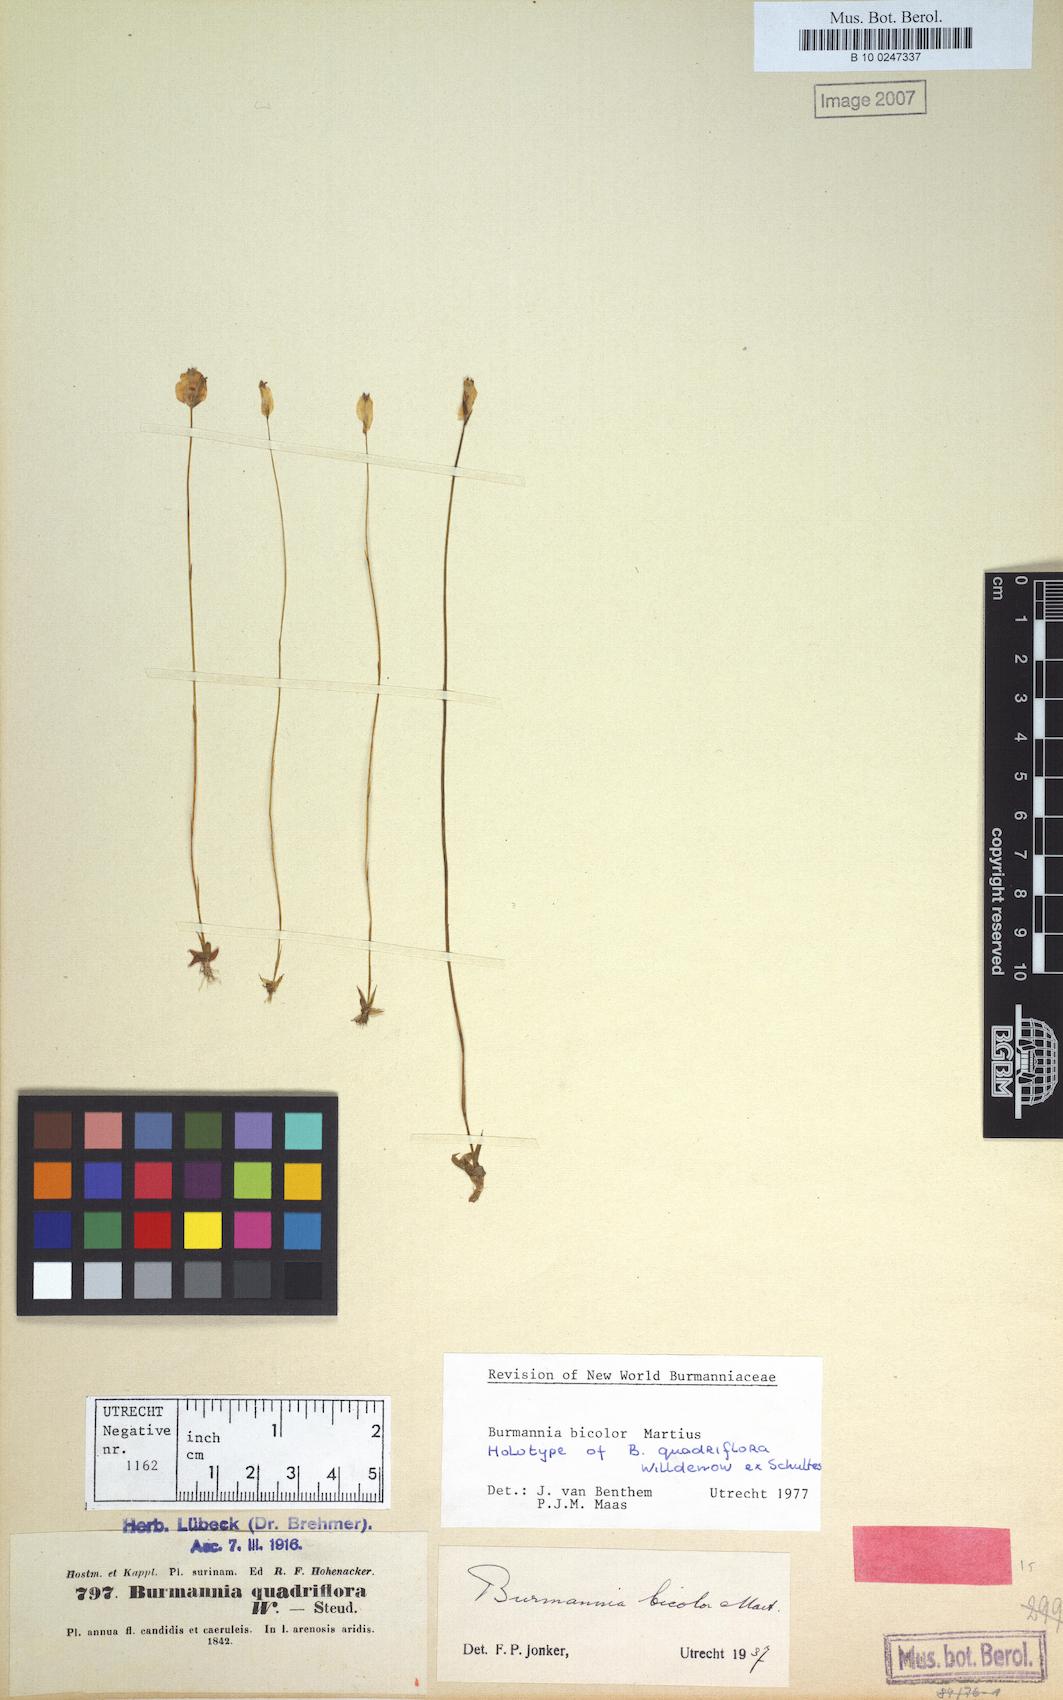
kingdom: Plantae
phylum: Tracheophyta
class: Liliopsida
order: Dioscoreales
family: Burmanniaceae
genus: Burmannia
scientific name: Burmannia bicolor
